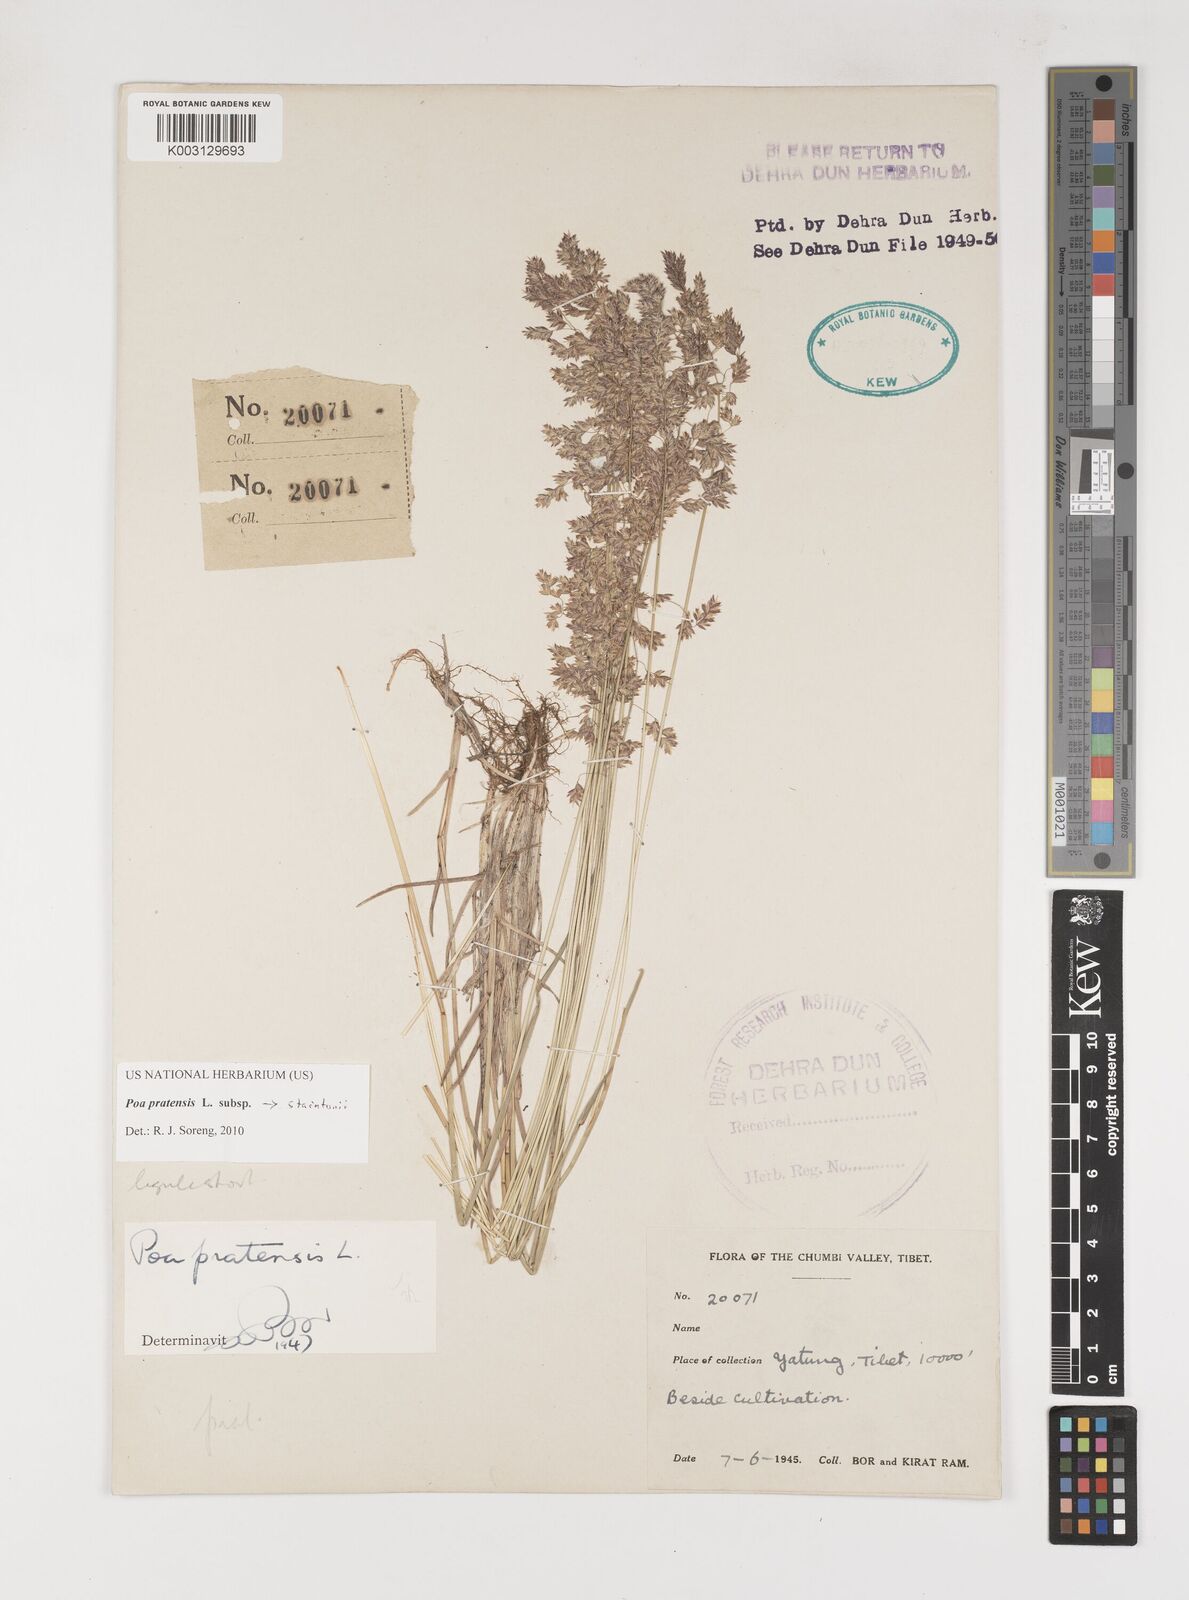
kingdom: Plantae
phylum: Tracheophyta
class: Liliopsida
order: Poales
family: Poaceae
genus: Poa
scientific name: Poa alpigena
